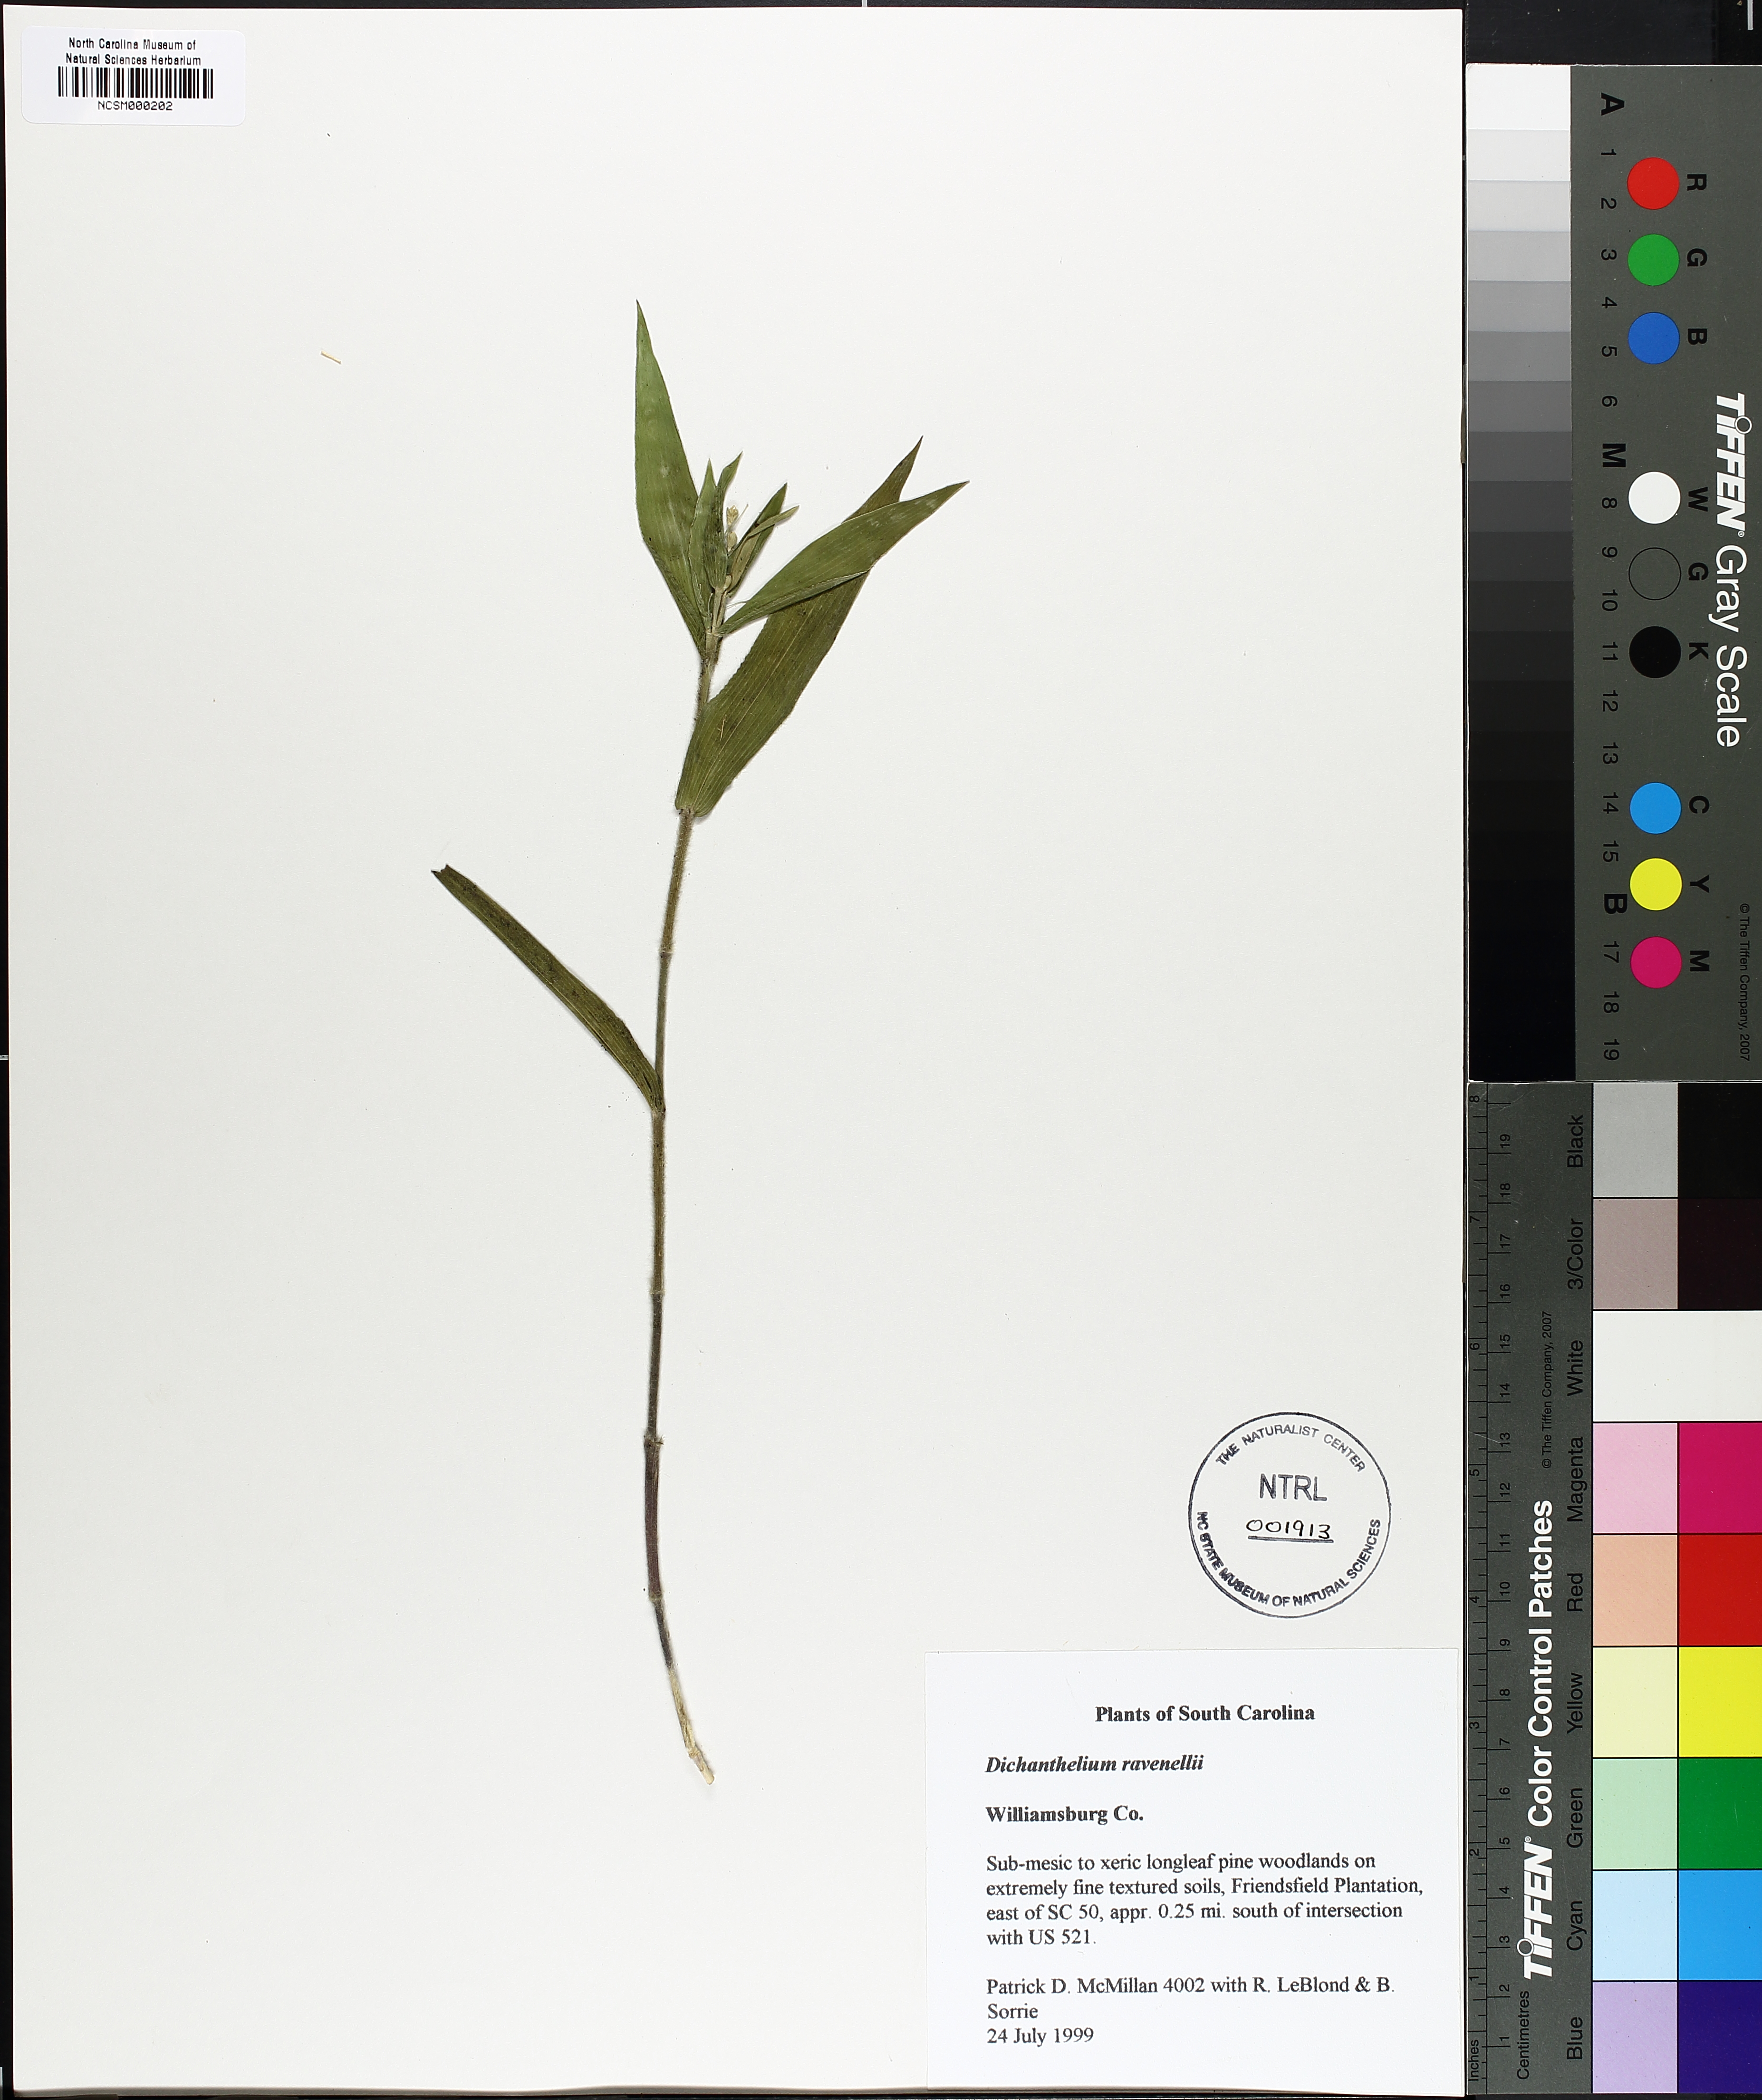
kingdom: Plantae
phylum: Tracheophyta
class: Liliopsida
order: Poales
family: Poaceae
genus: Dichanthelium
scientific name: Dichanthelium ravenelii
